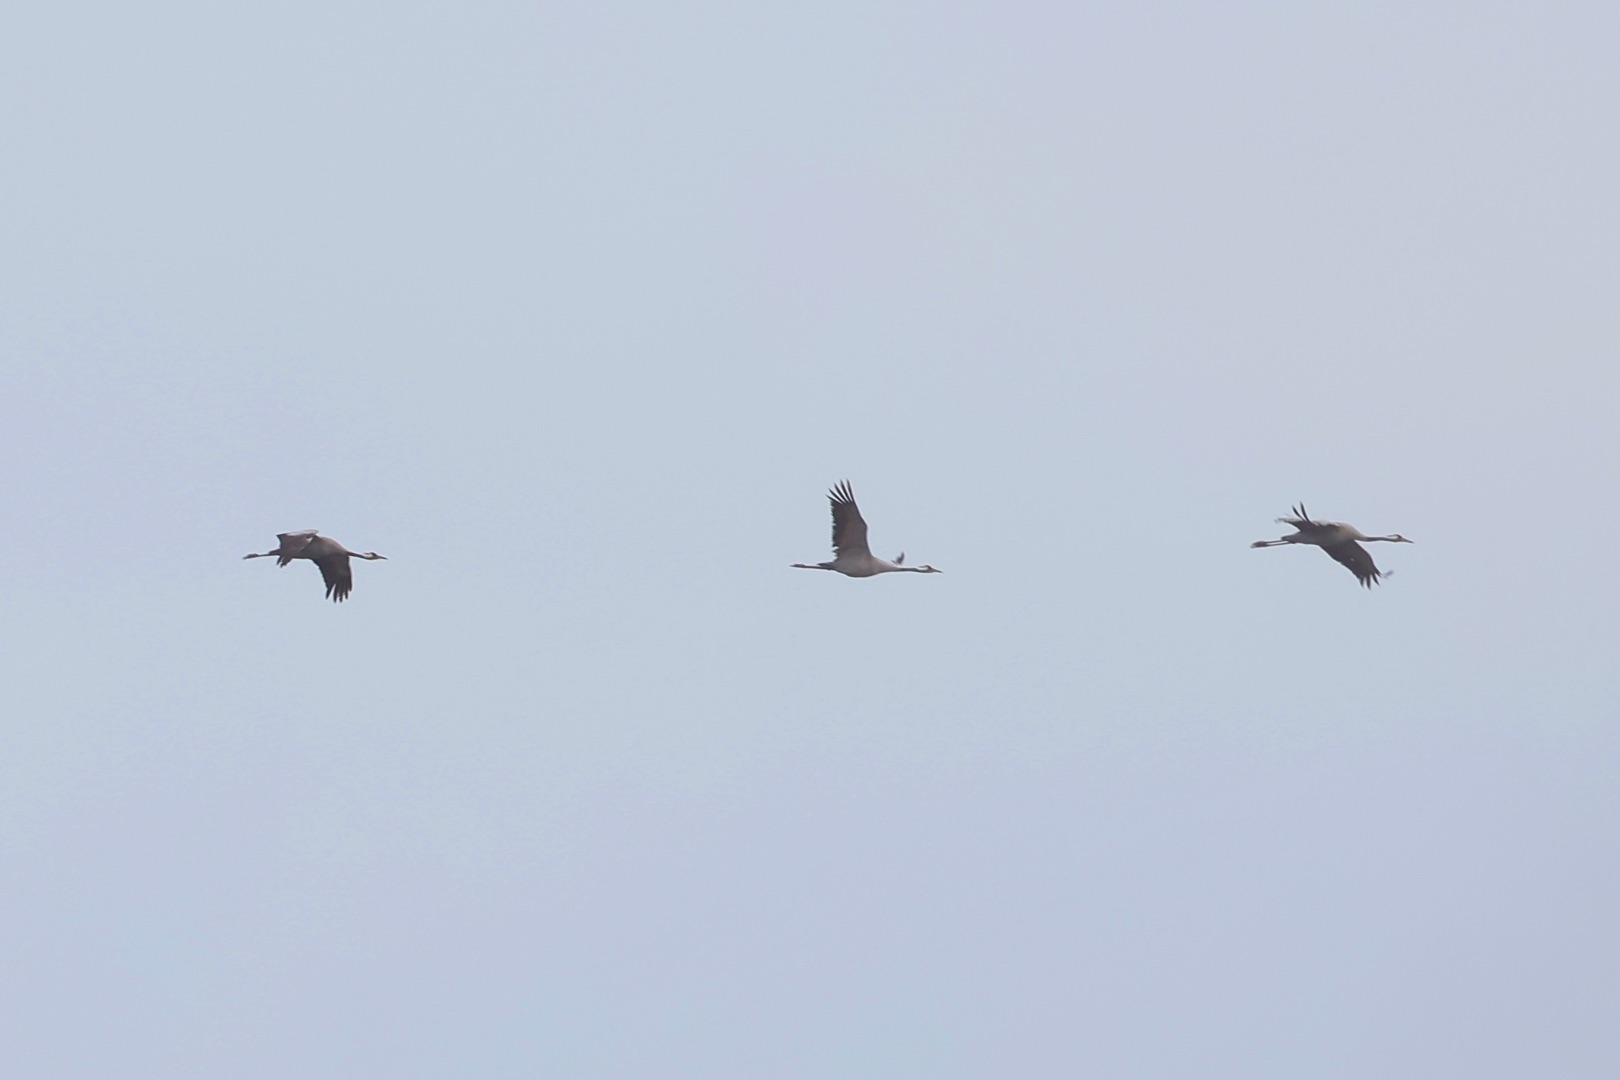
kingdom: Animalia
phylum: Chordata
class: Aves
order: Gruiformes
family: Gruidae
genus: Grus
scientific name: Grus grus
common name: Trane
